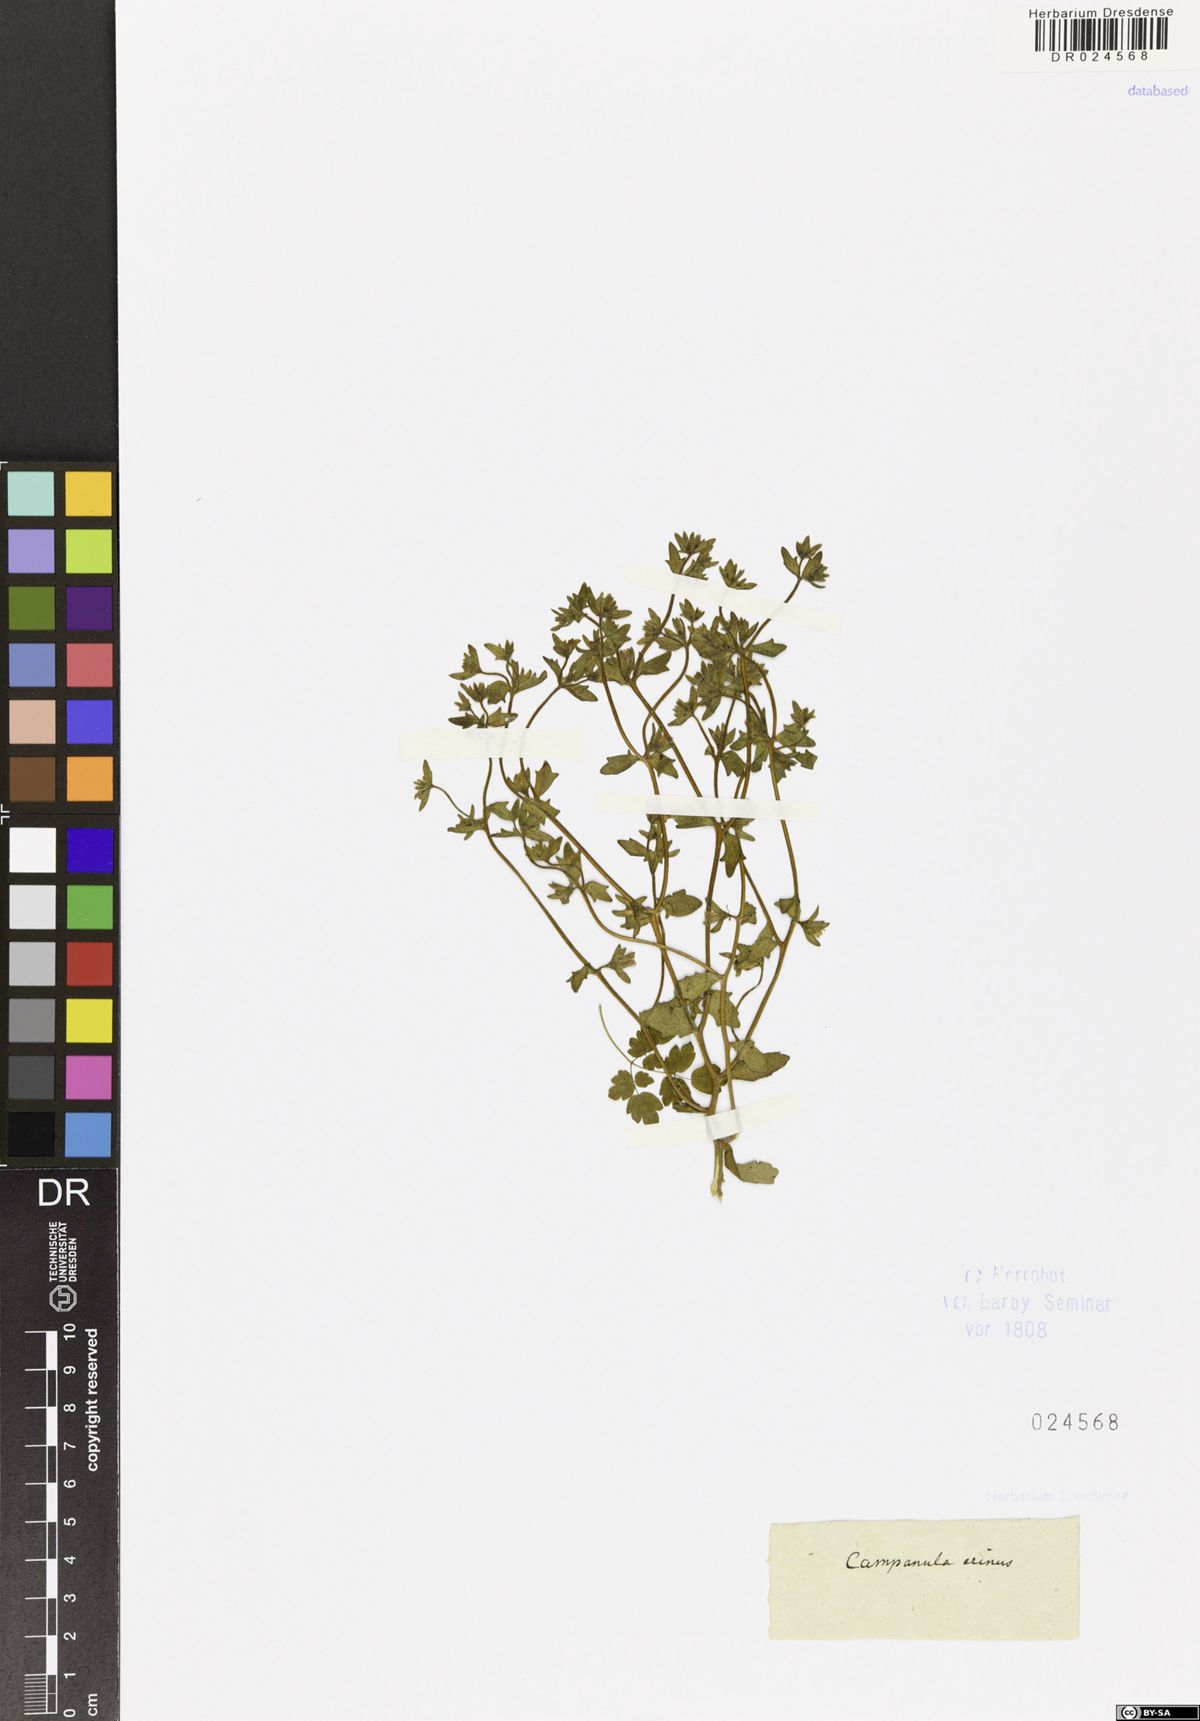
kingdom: Plantae
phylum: Tracheophyta
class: Magnoliopsida
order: Asterales
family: Campanulaceae
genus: Campanula
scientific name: Campanula erinus
